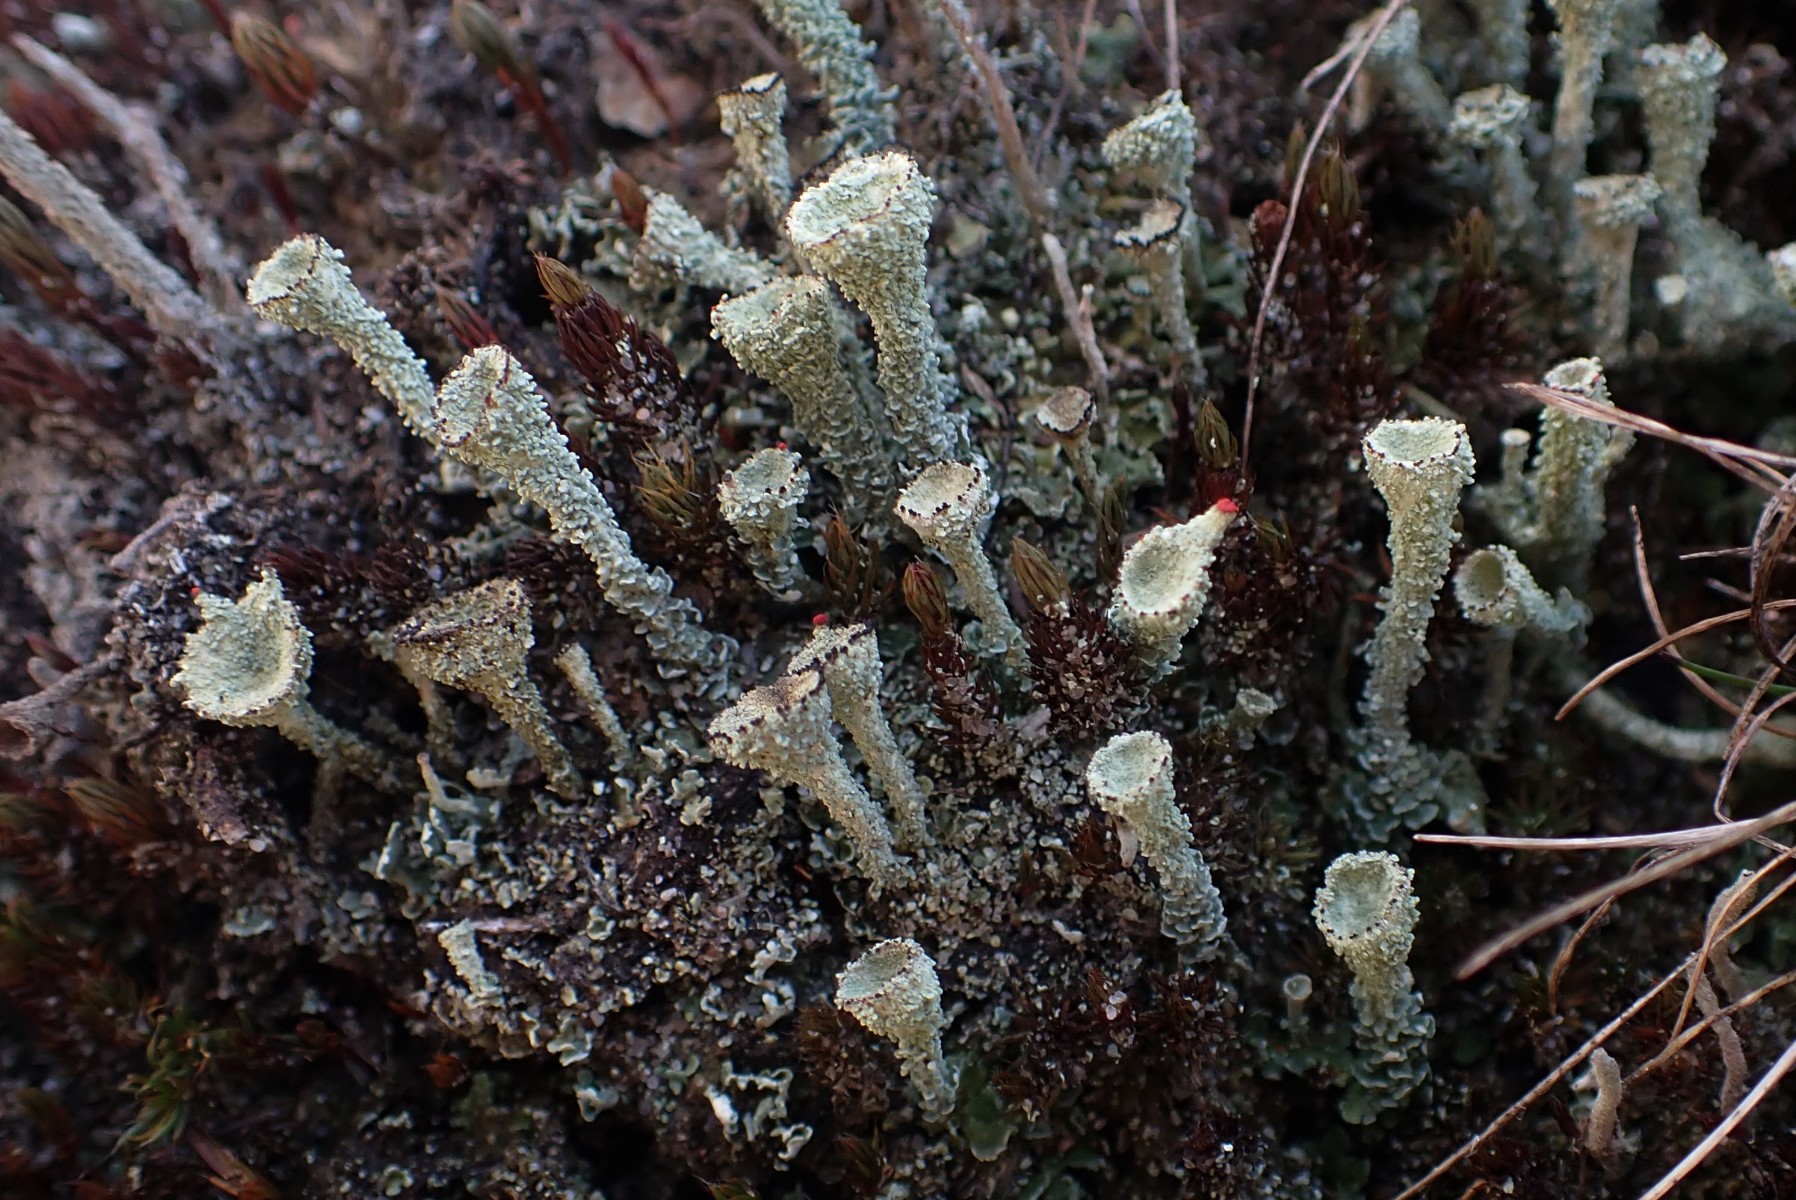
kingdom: Fungi
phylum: Ascomycota
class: Lecanoromycetes
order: Lecanorales
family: Cladoniaceae
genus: Cladonia
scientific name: Cladonia diversa
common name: rød bægerlav
